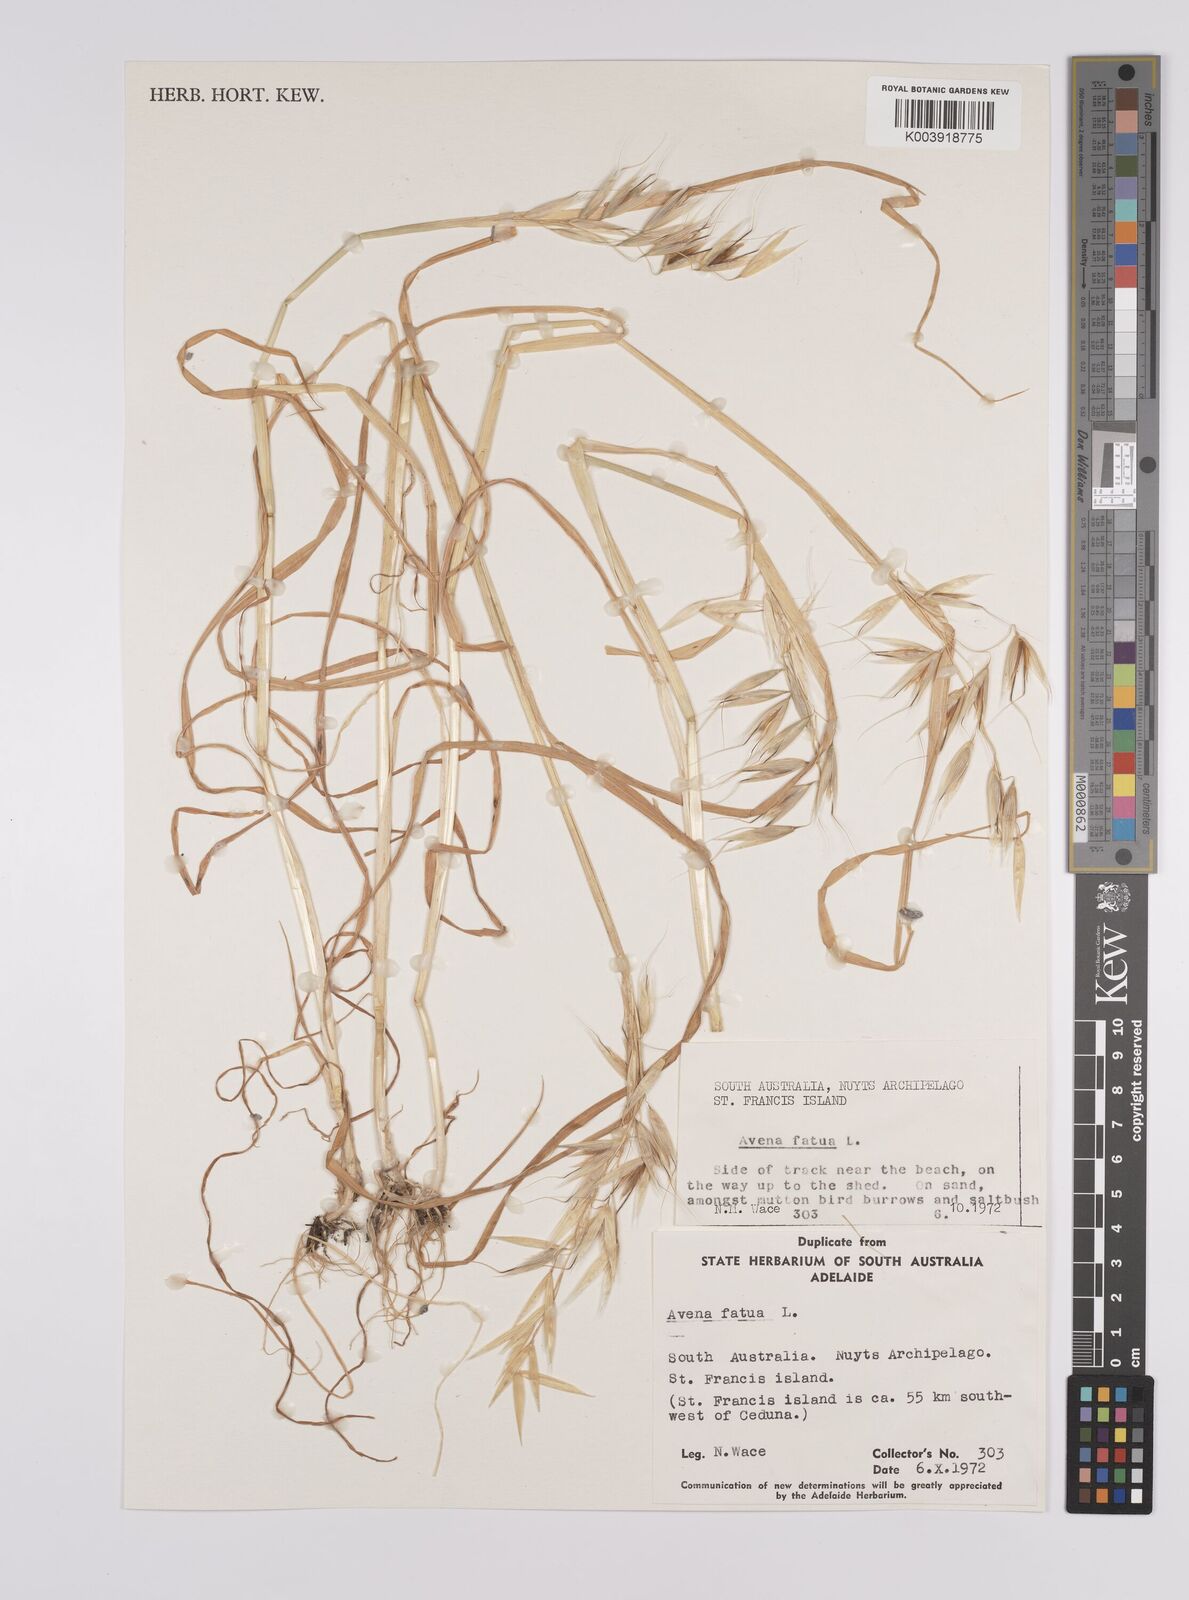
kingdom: Plantae
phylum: Tracheophyta
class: Liliopsida
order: Poales
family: Poaceae
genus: Avena
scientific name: Avena fatua
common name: Wild oat
